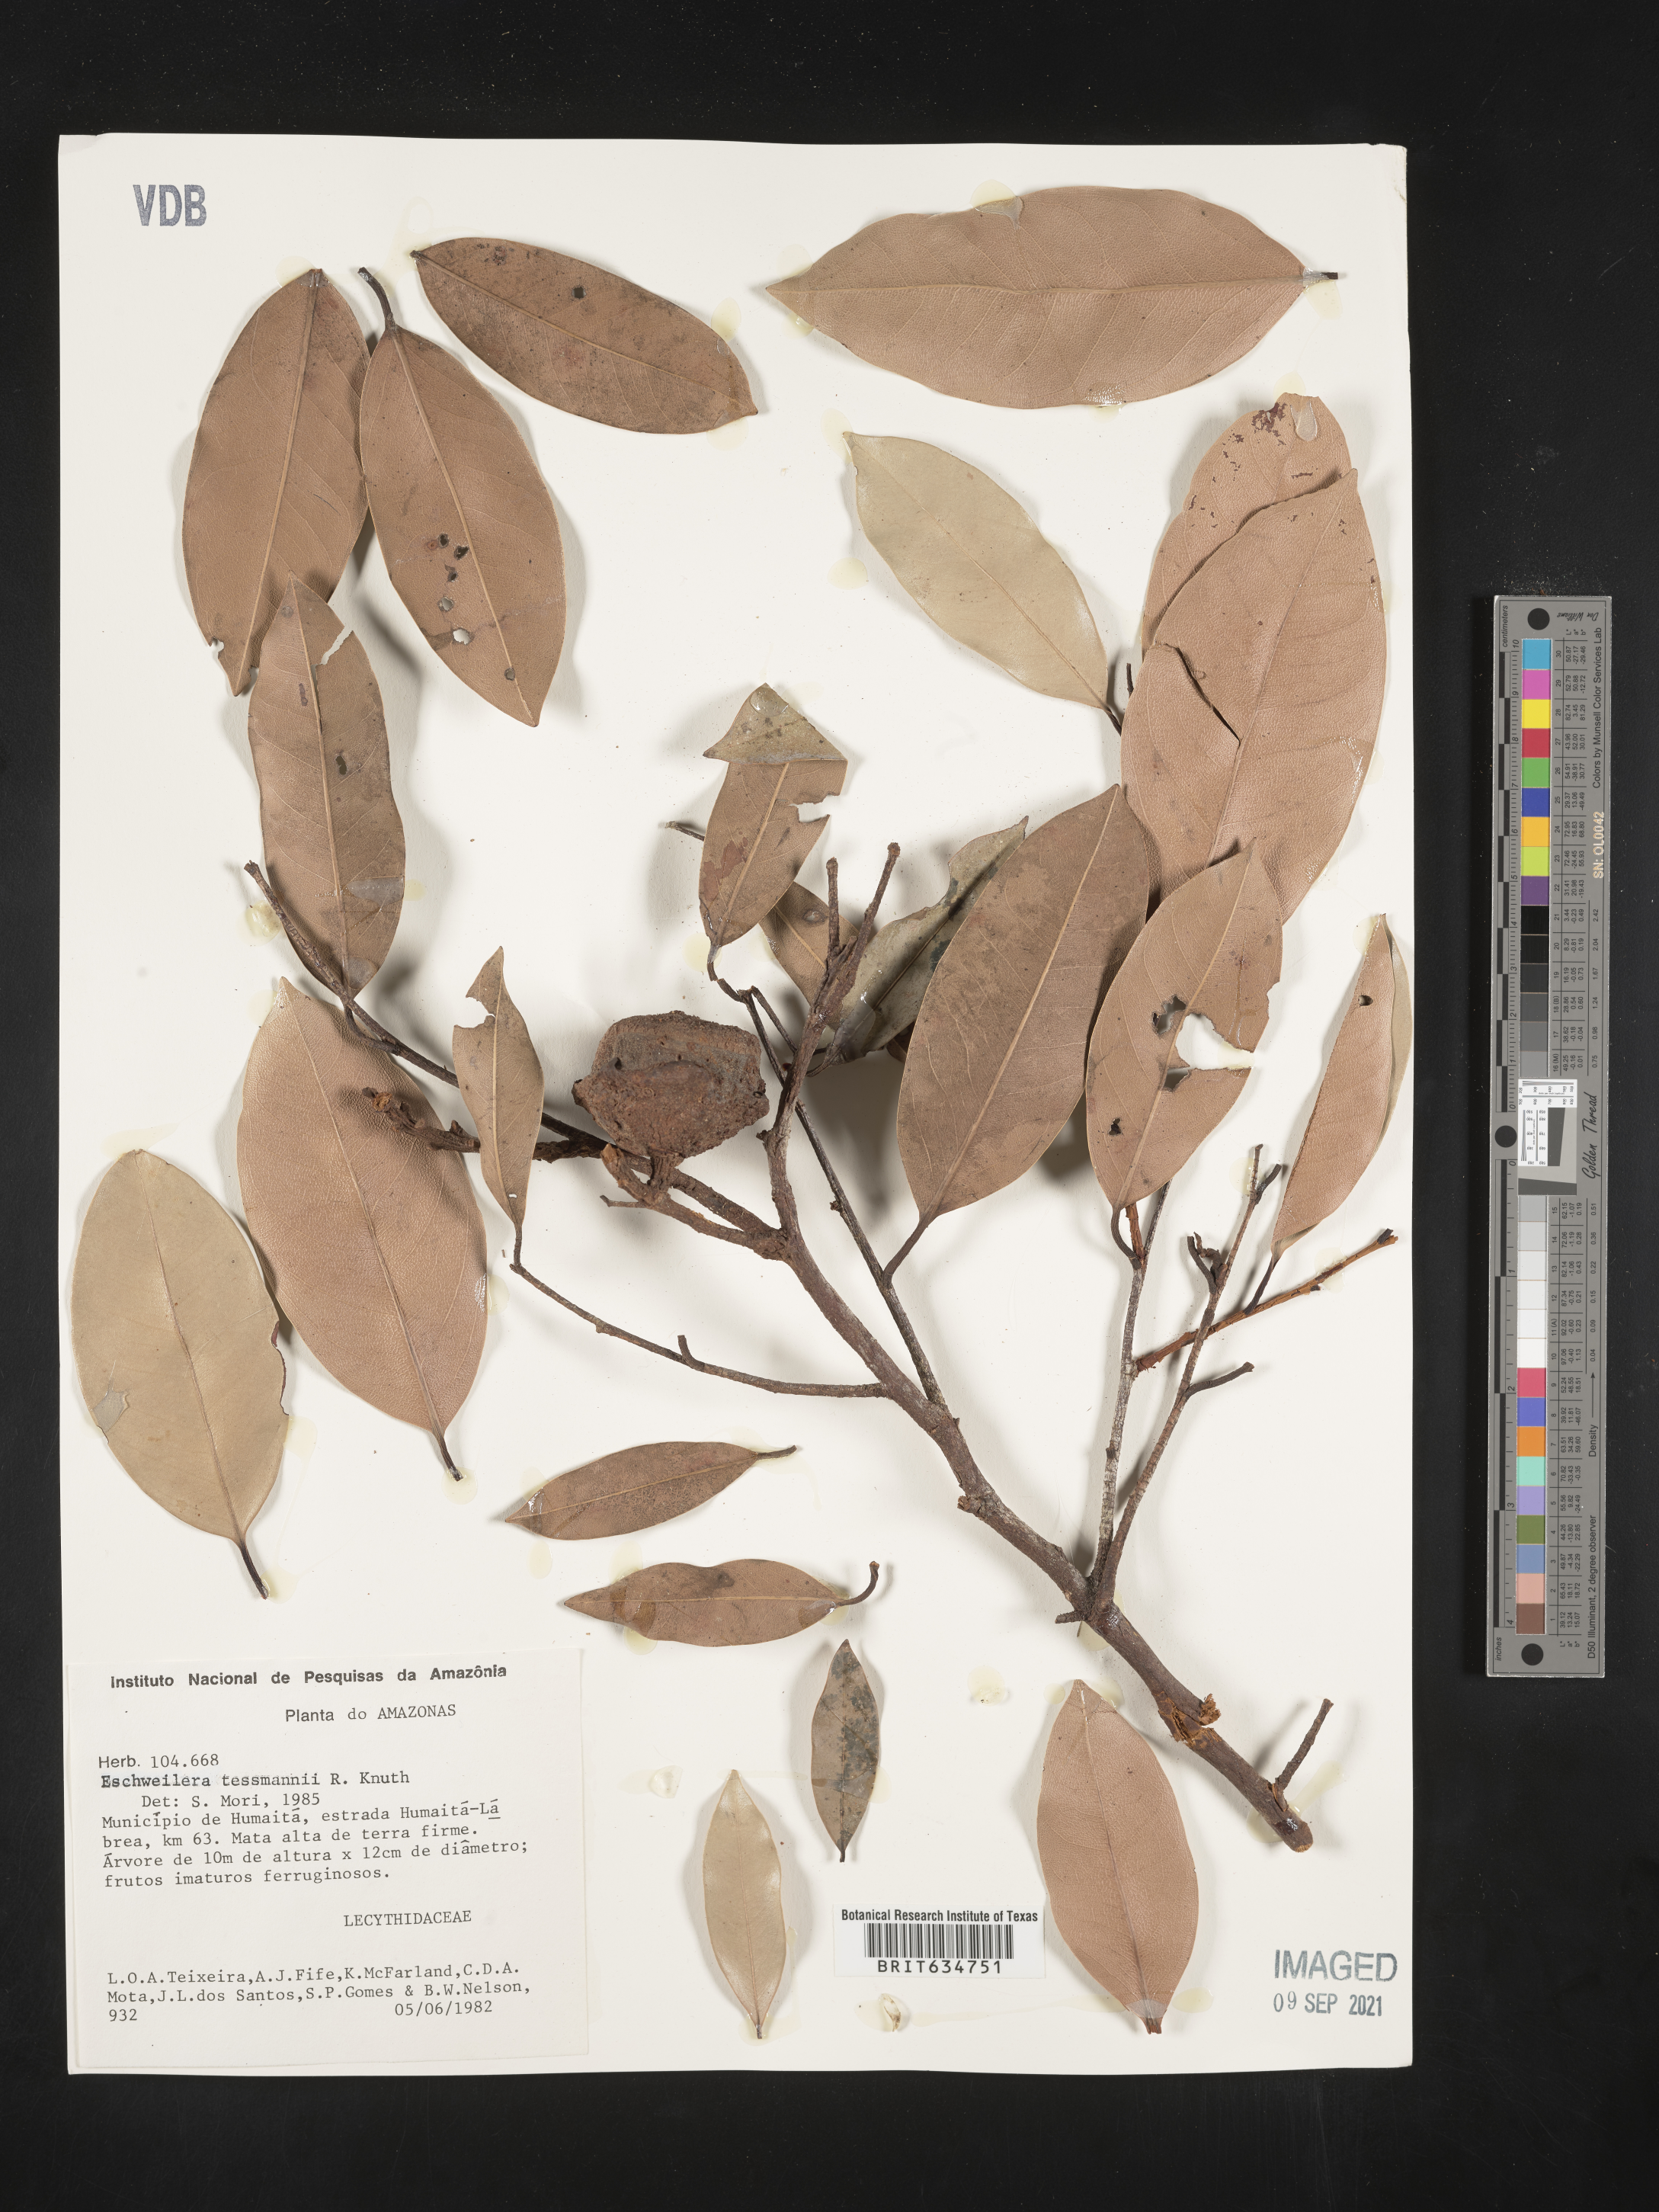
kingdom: Plantae
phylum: Tracheophyta
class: Magnoliopsida
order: Ericales
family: Lecythidaceae
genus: Eschweilera
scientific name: Eschweilera
